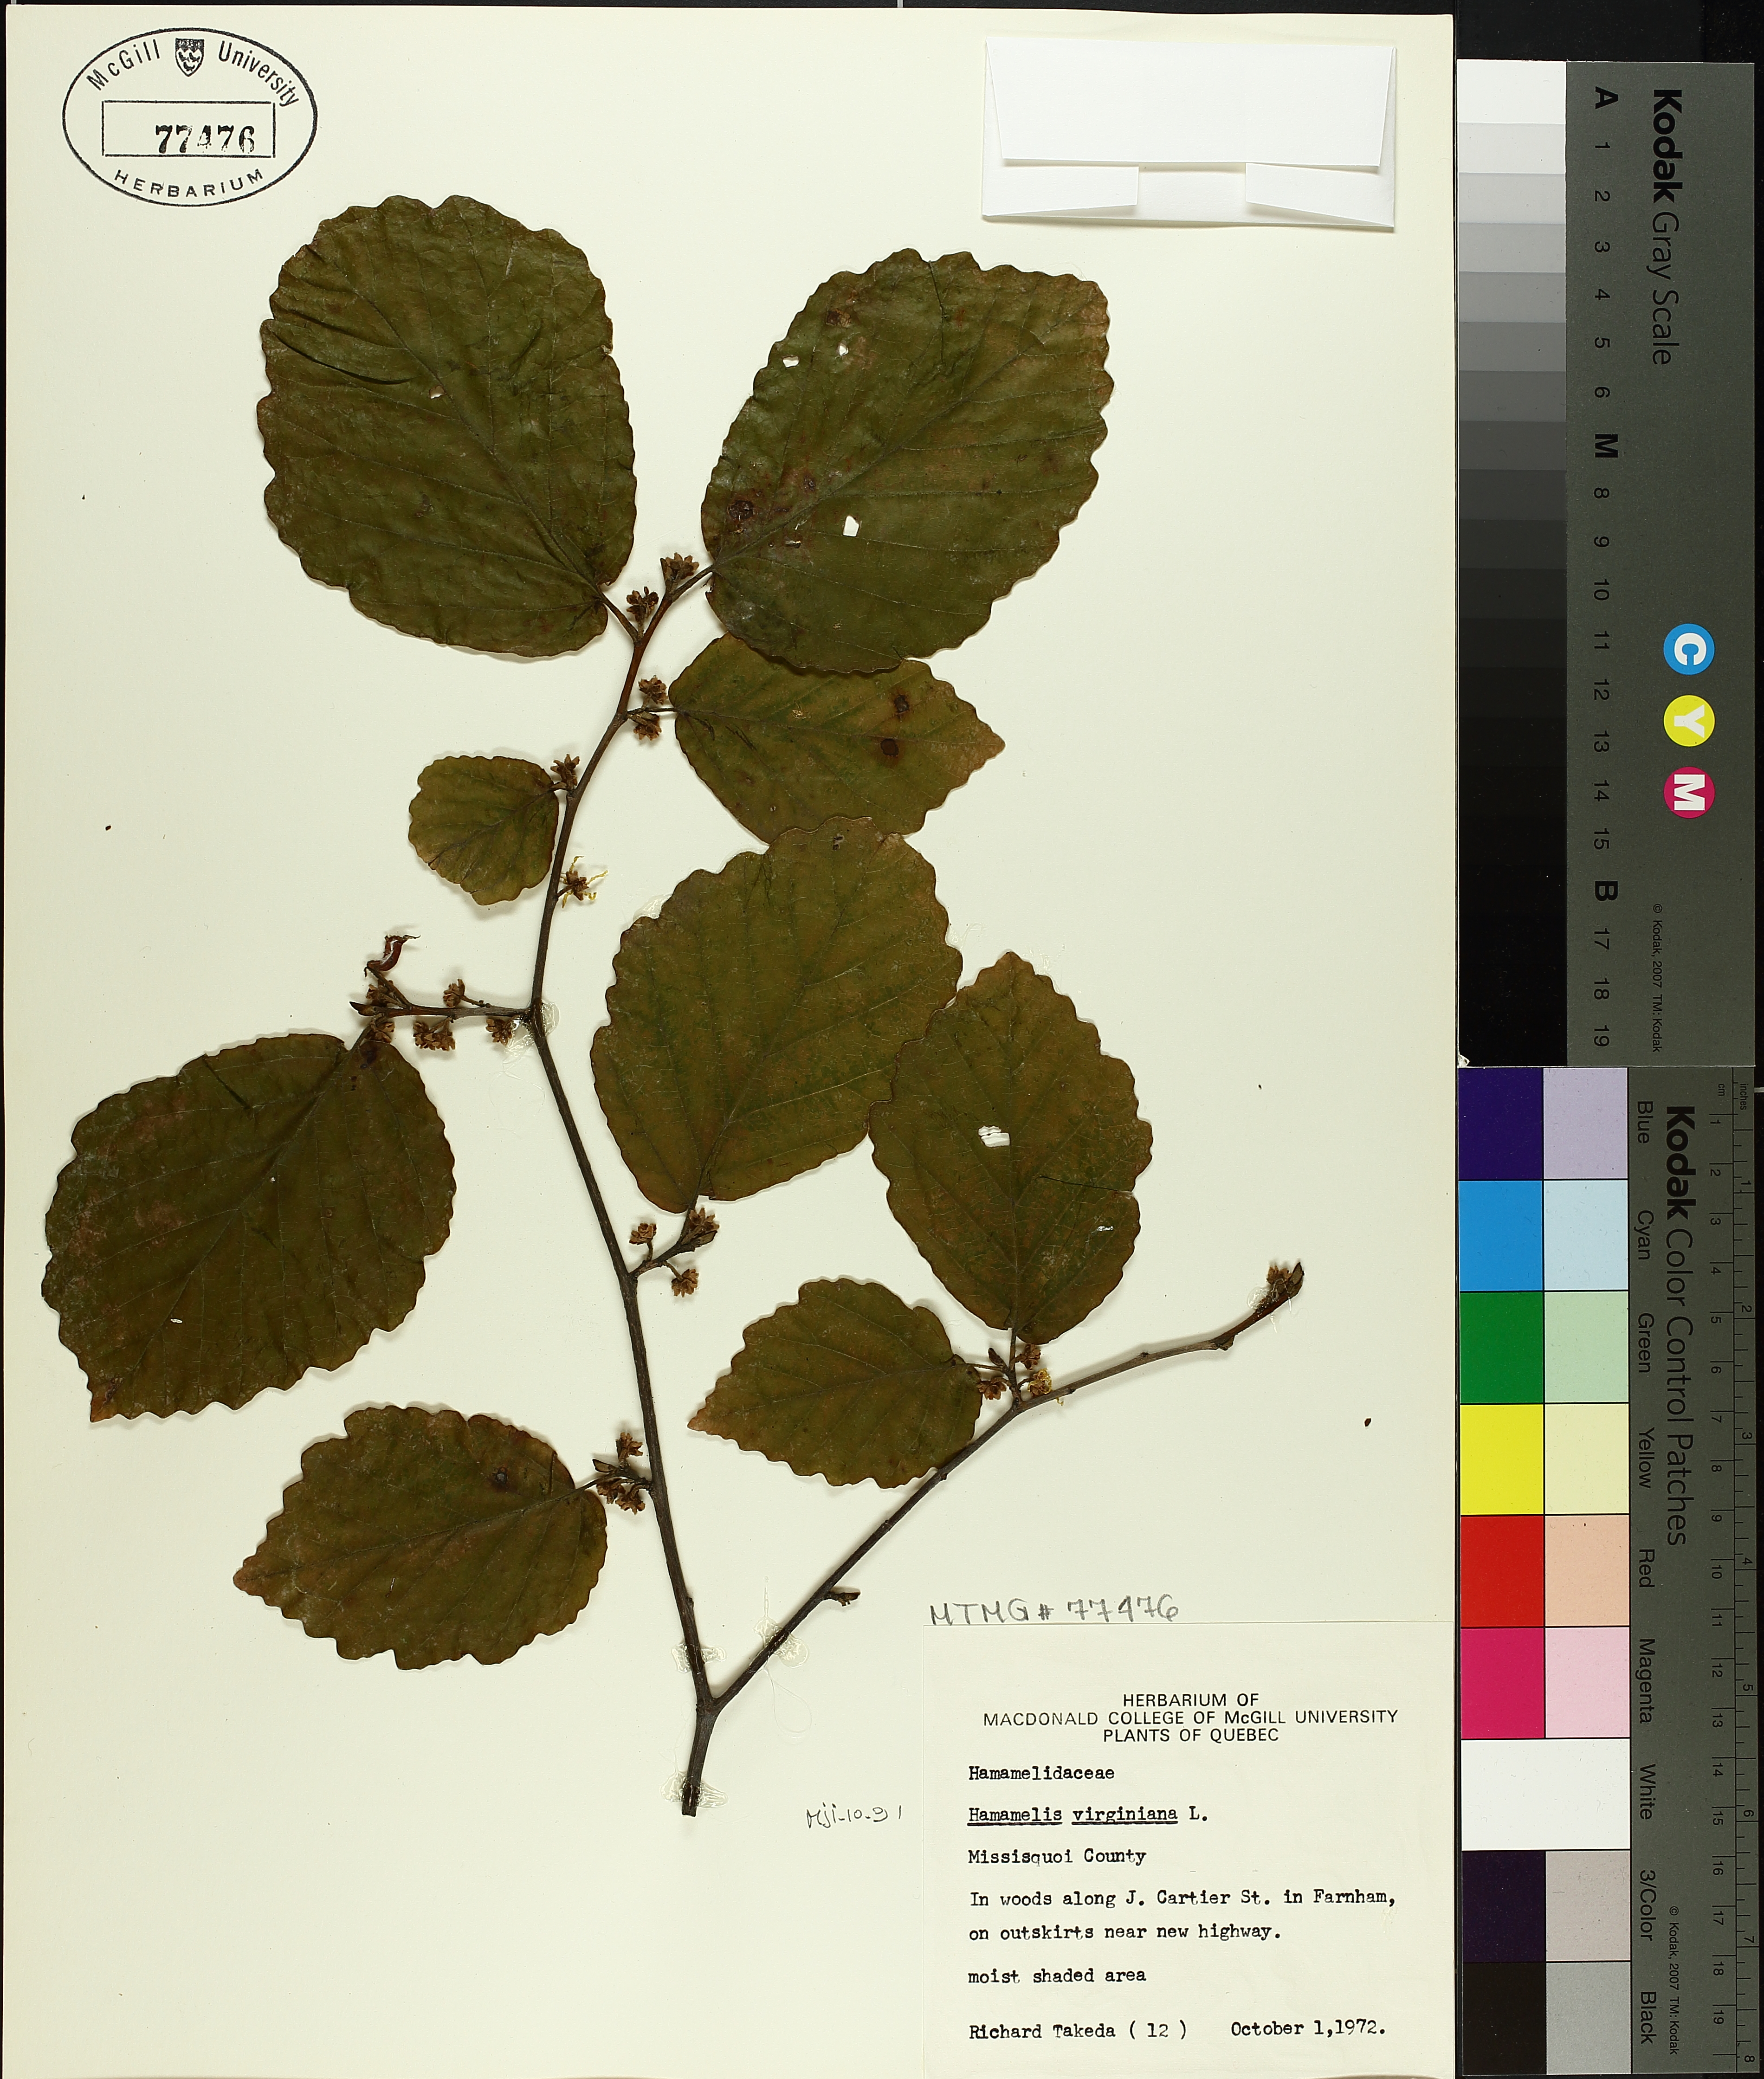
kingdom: Plantae
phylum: Tracheophyta
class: Magnoliopsida
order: Saxifragales
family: Hamamelidaceae
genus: Hamamelis
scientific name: Hamamelis virginiana
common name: Witch-hazel
